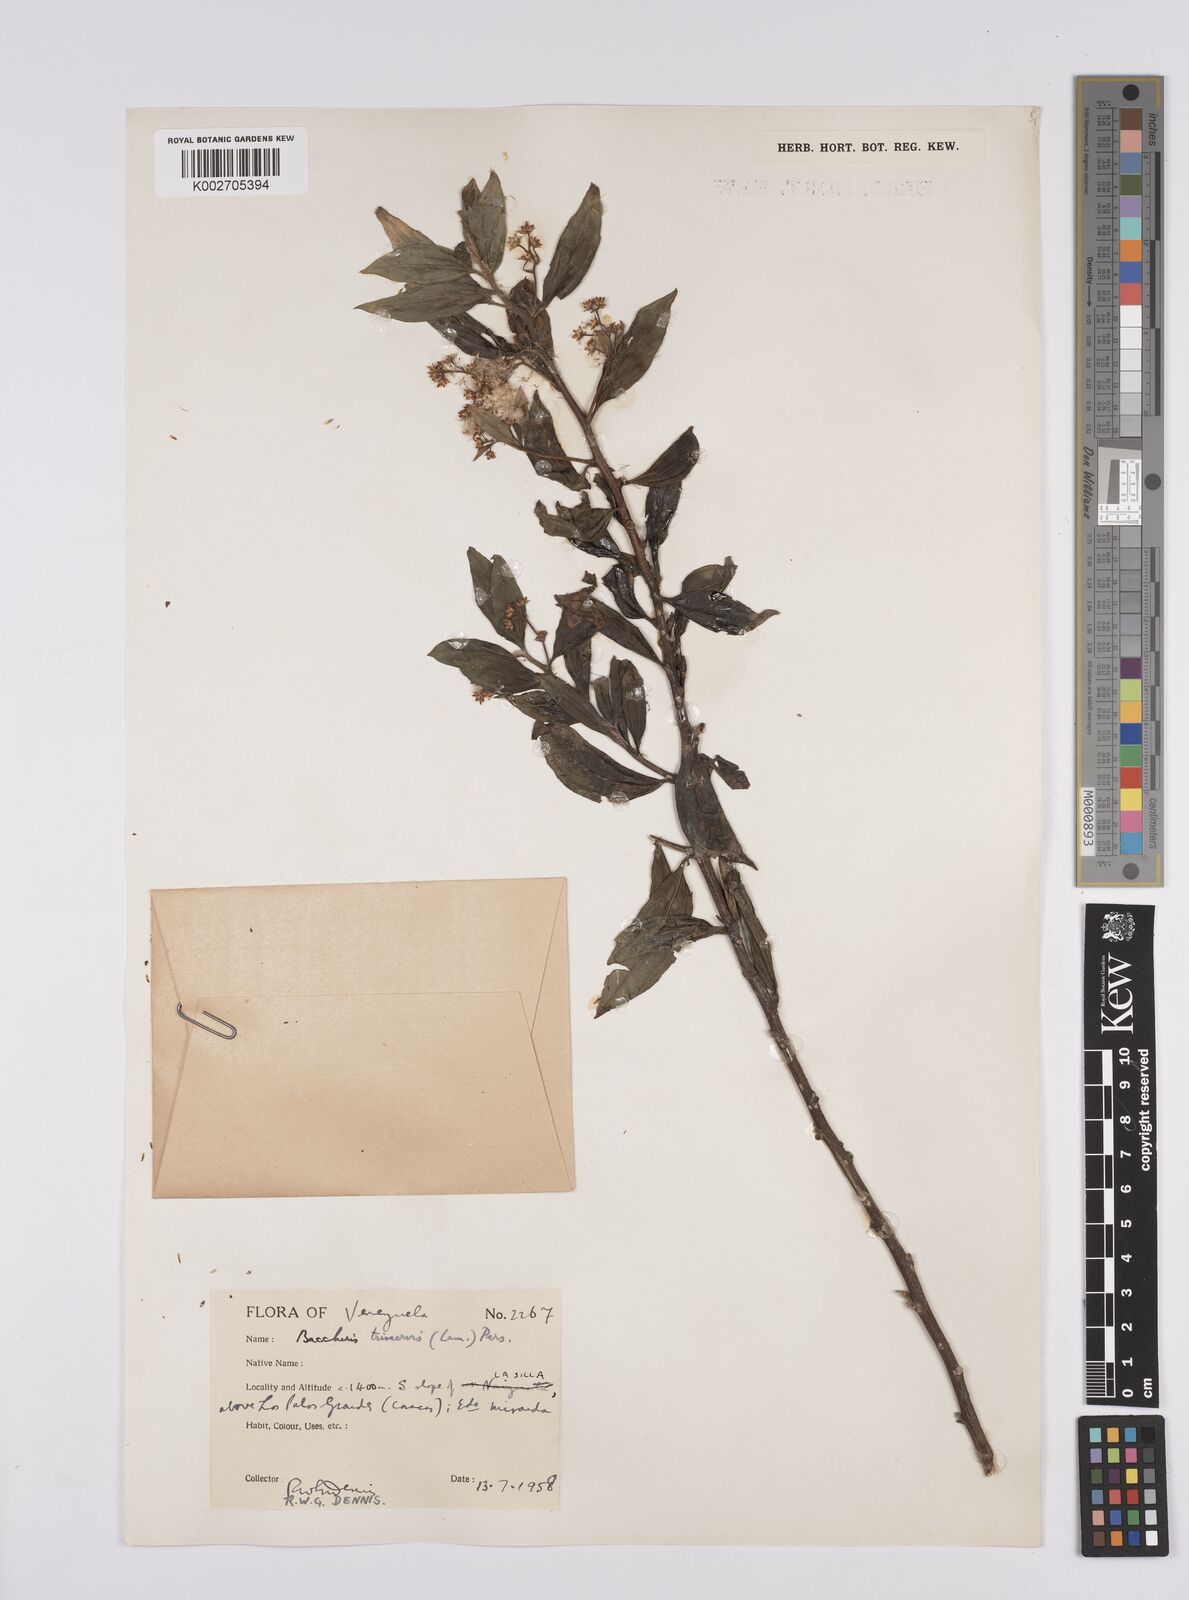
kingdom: Plantae
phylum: Tracheophyta
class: Magnoliopsida
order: Asterales
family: Asteraceae
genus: Baccharis
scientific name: Baccharis trinervis
